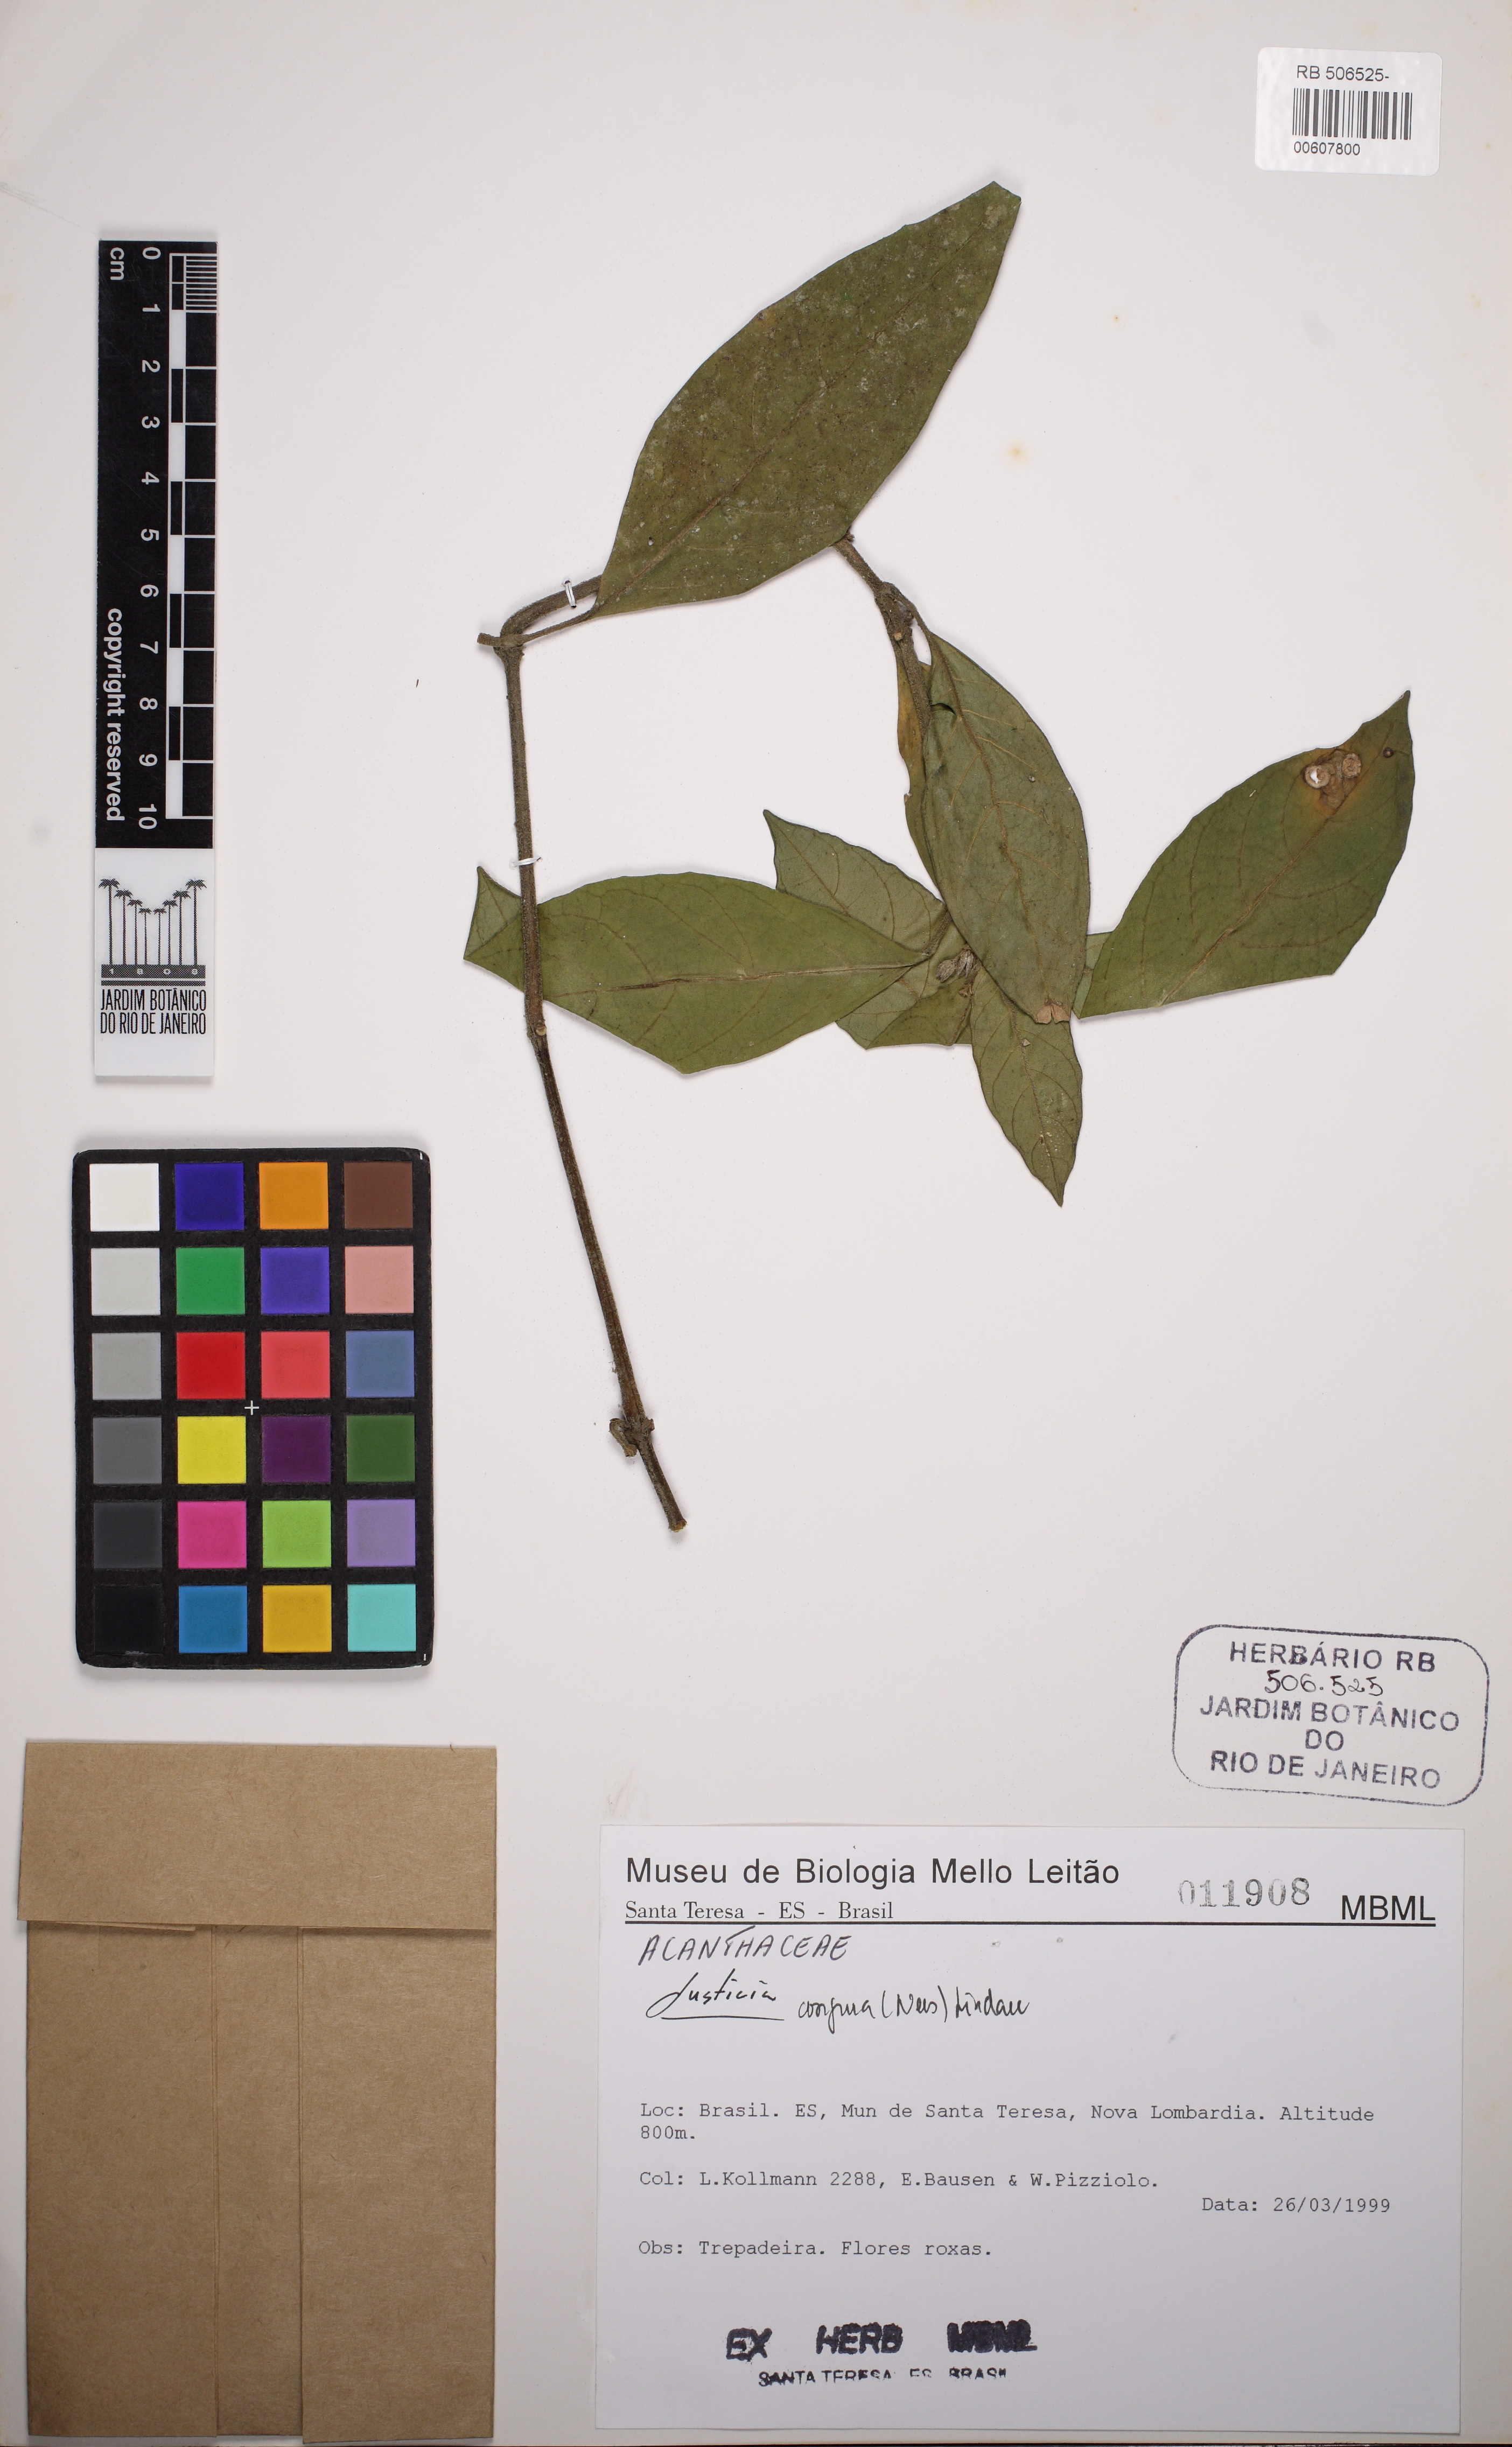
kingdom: Plantae
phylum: Tracheophyta
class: Magnoliopsida
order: Lamiales
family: Acanthaceae
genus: Justicia
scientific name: Justicia congrua
